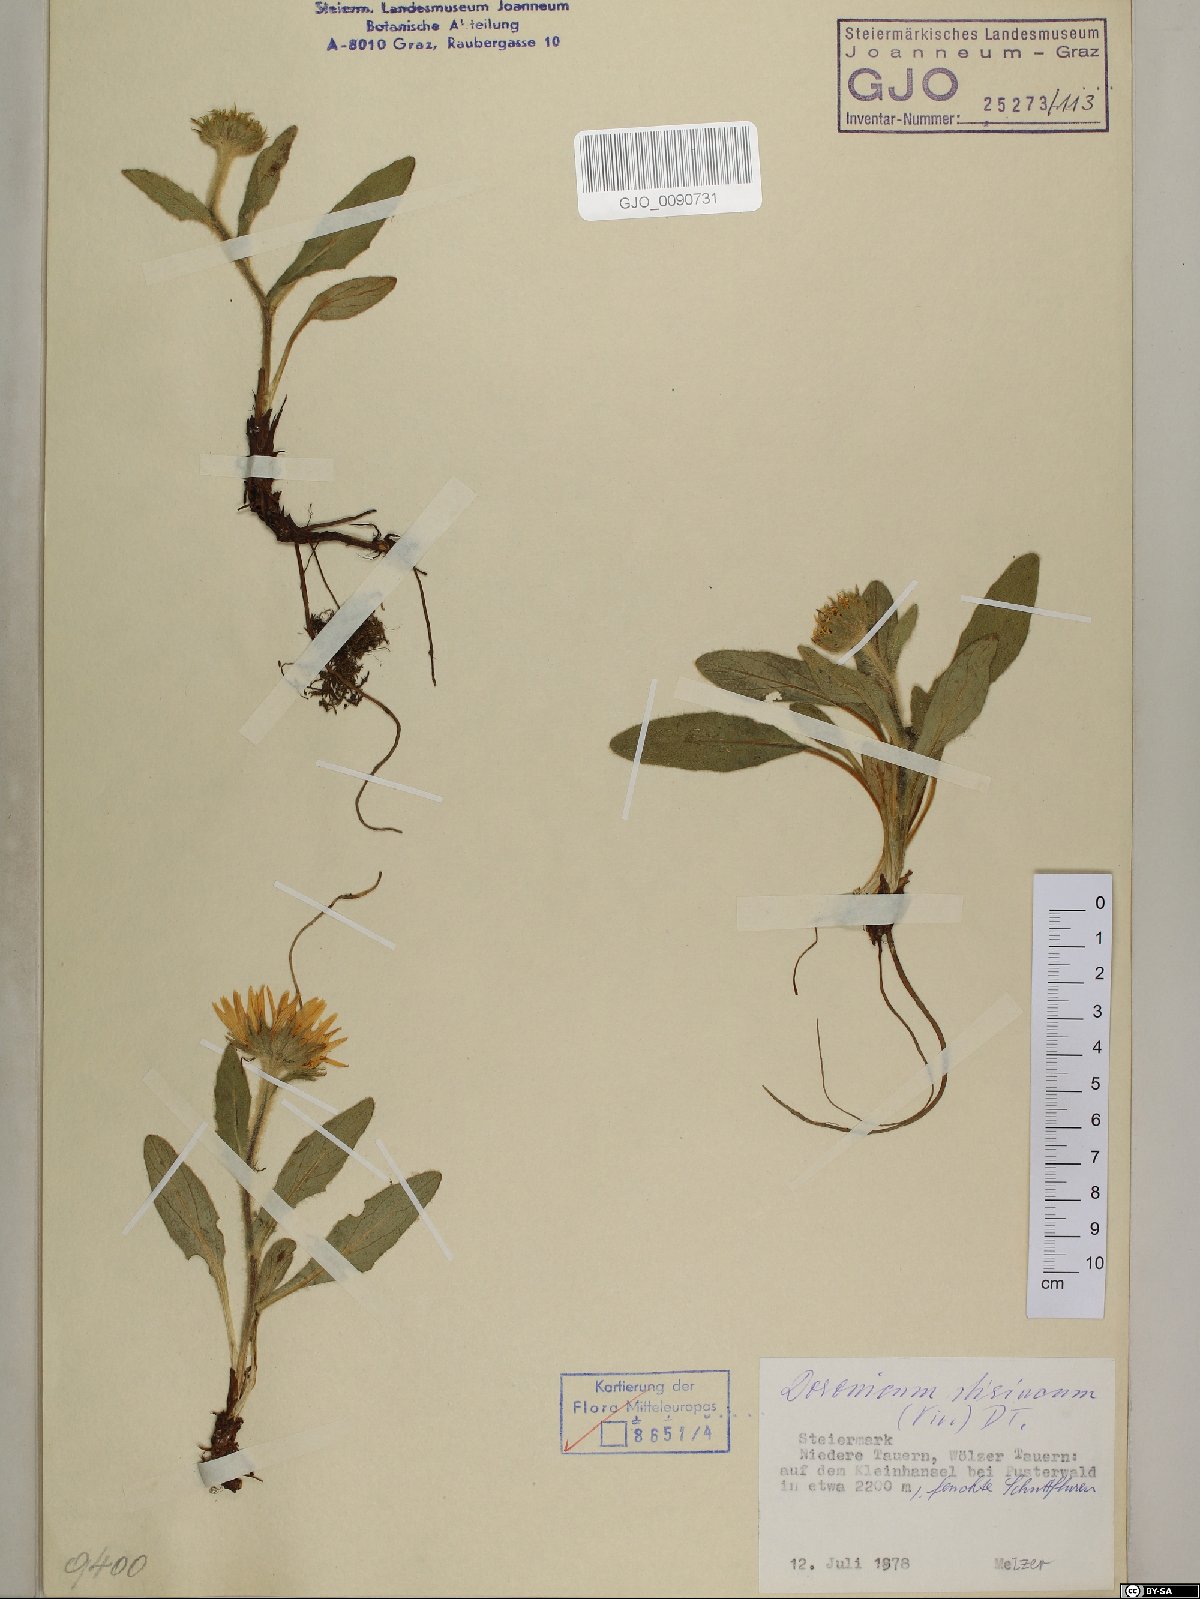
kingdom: Plantae
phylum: Tracheophyta
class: Magnoliopsida
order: Asterales
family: Asteraceae
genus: Doronicum
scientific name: Doronicum clusii
